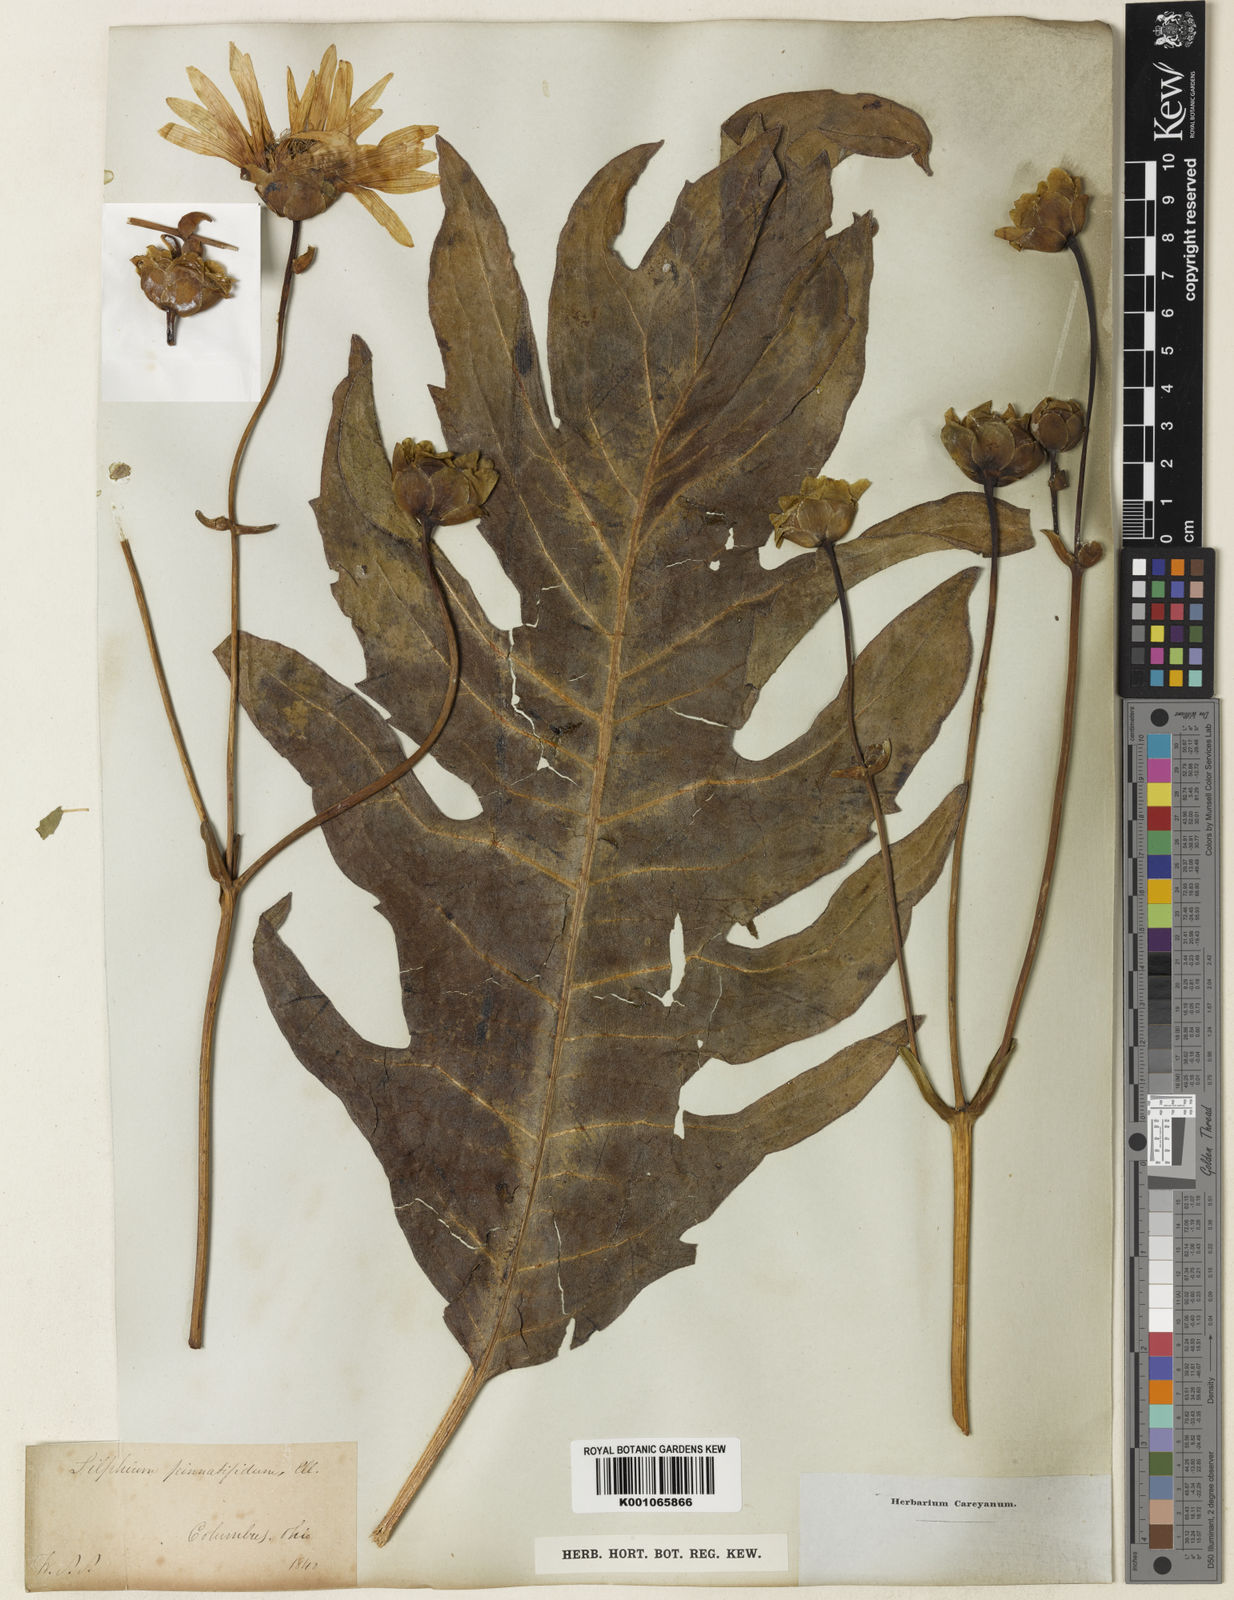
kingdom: Plantae
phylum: Tracheophyta
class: Magnoliopsida
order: Asterales
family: Asteraceae
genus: Silphium
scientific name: Silphium terebinthinaceum
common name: Basal-leaf rosinweed
